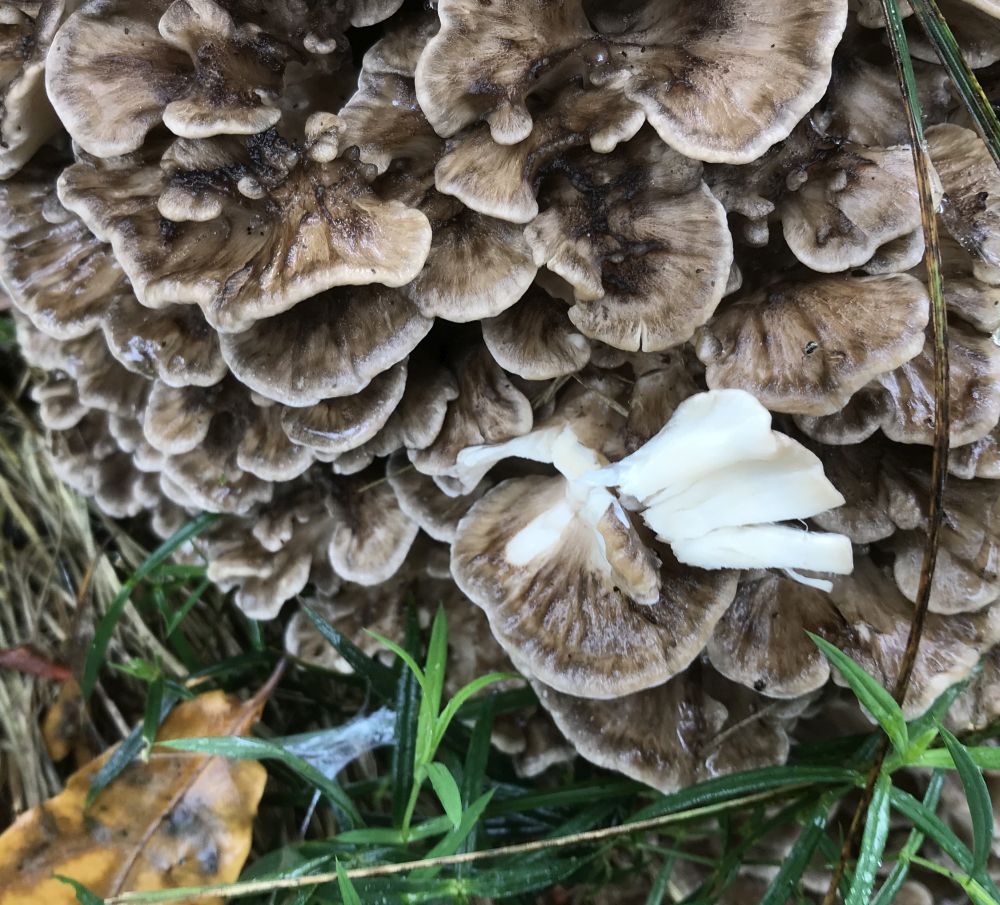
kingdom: Fungi
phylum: Basidiomycota
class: Agaricomycetes
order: Polyporales
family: Grifolaceae
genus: Grifola
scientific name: Grifola frondosa
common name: tueporesvamp
